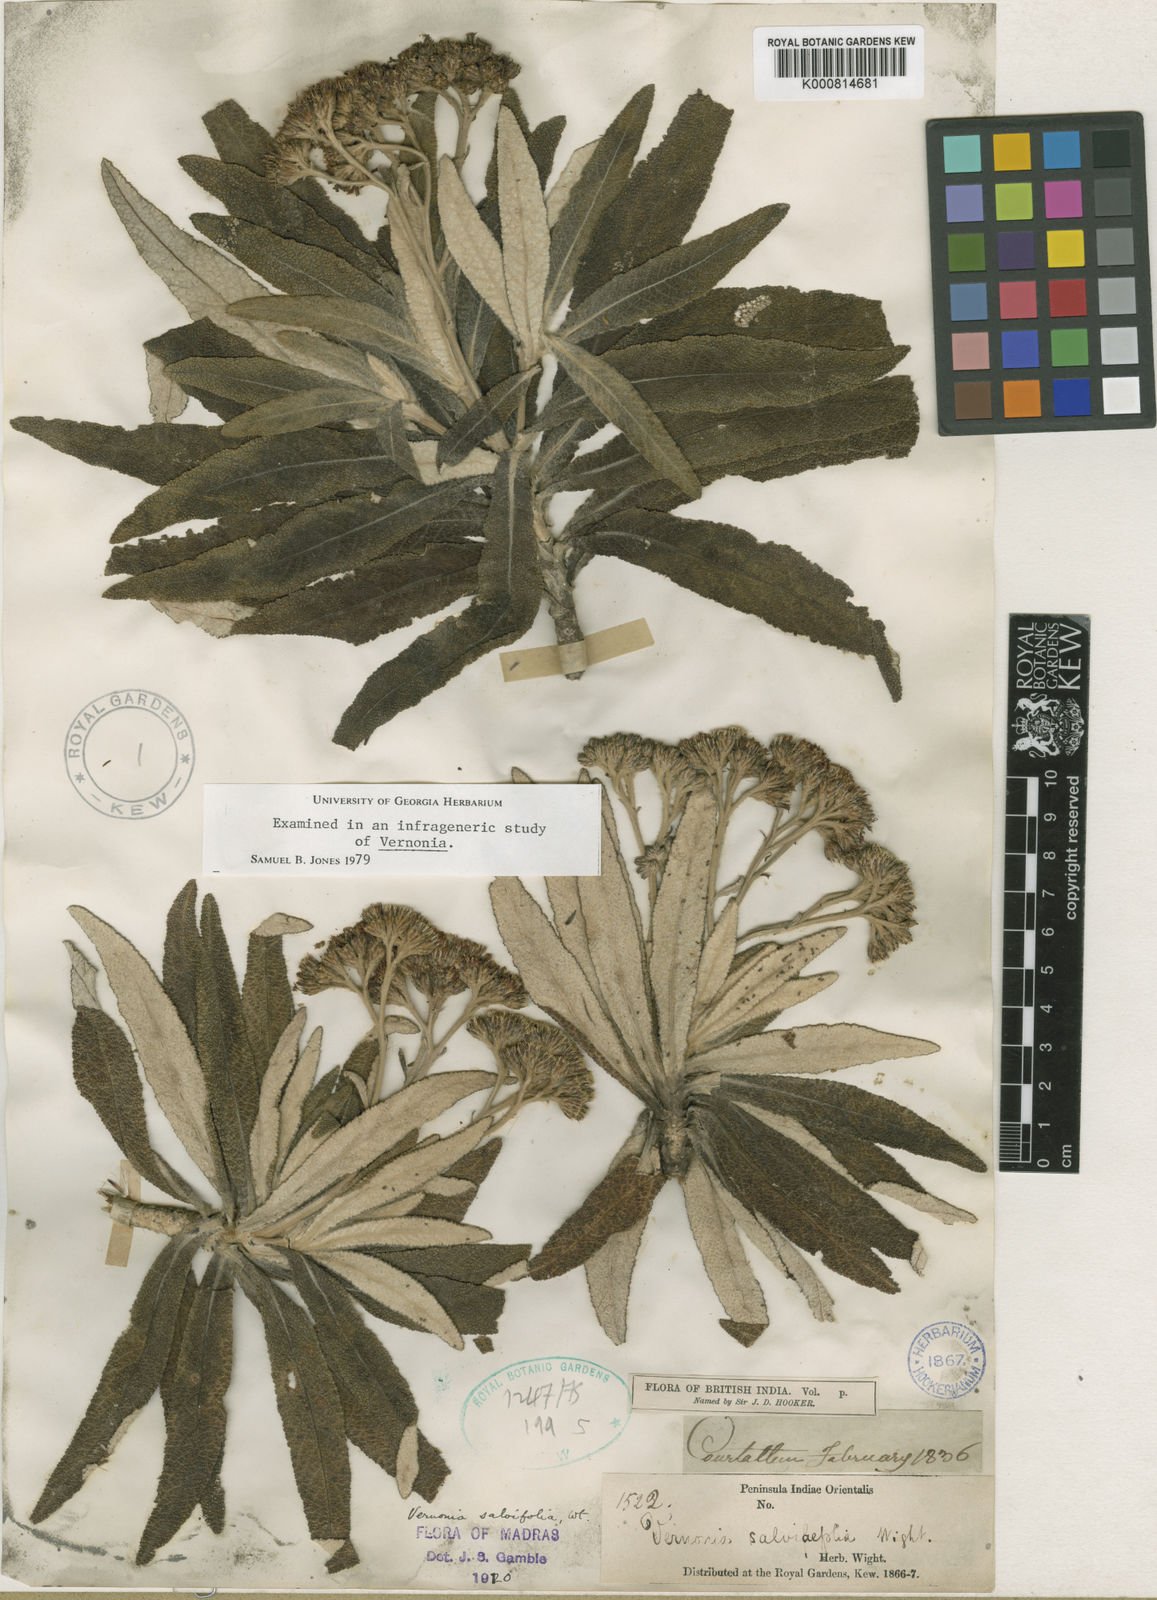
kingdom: Plantae
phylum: Tracheophyta
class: Magnoliopsida
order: Asterales
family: Asteraceae
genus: Uniyala
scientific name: Uniyala salviifolia
